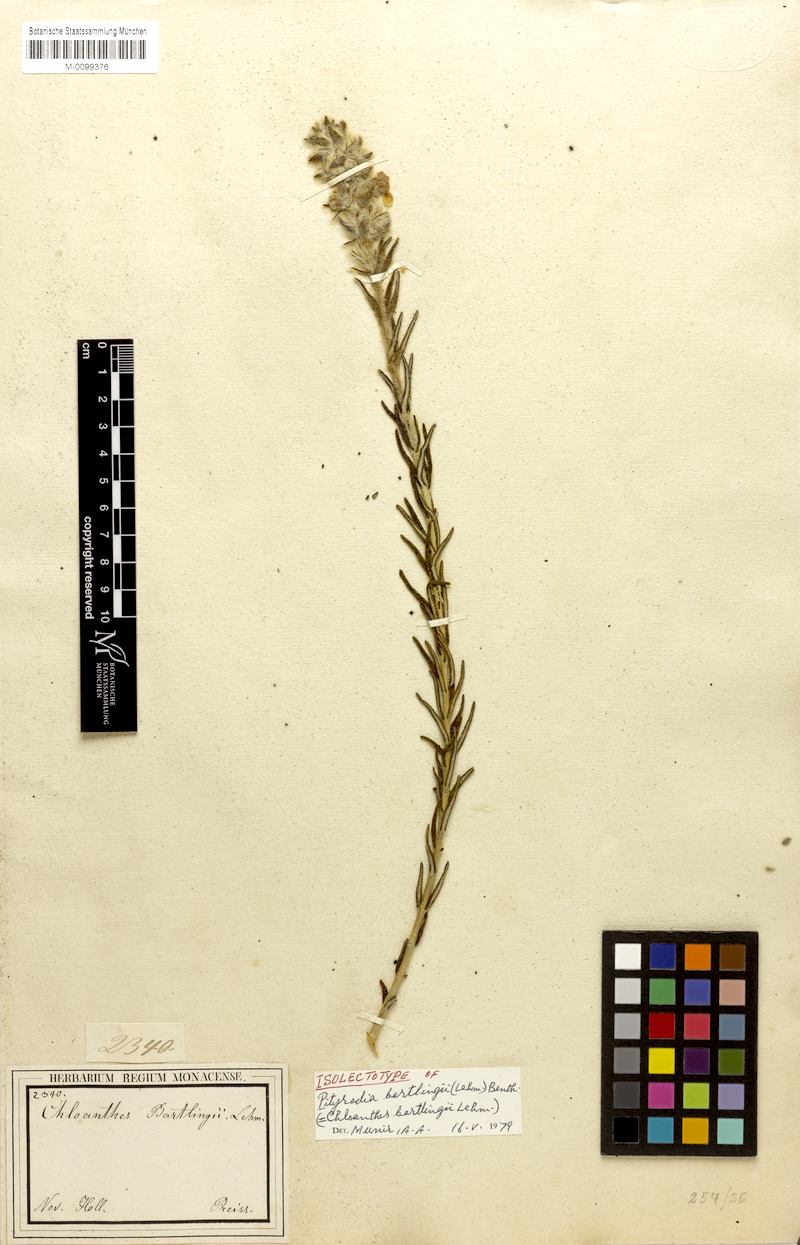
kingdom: Plantae
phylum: Tracheophyta
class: Magnoliopsida
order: Lamiales
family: Lamiaceae
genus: Hemiphora
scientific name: Hemiphora bartlingii
